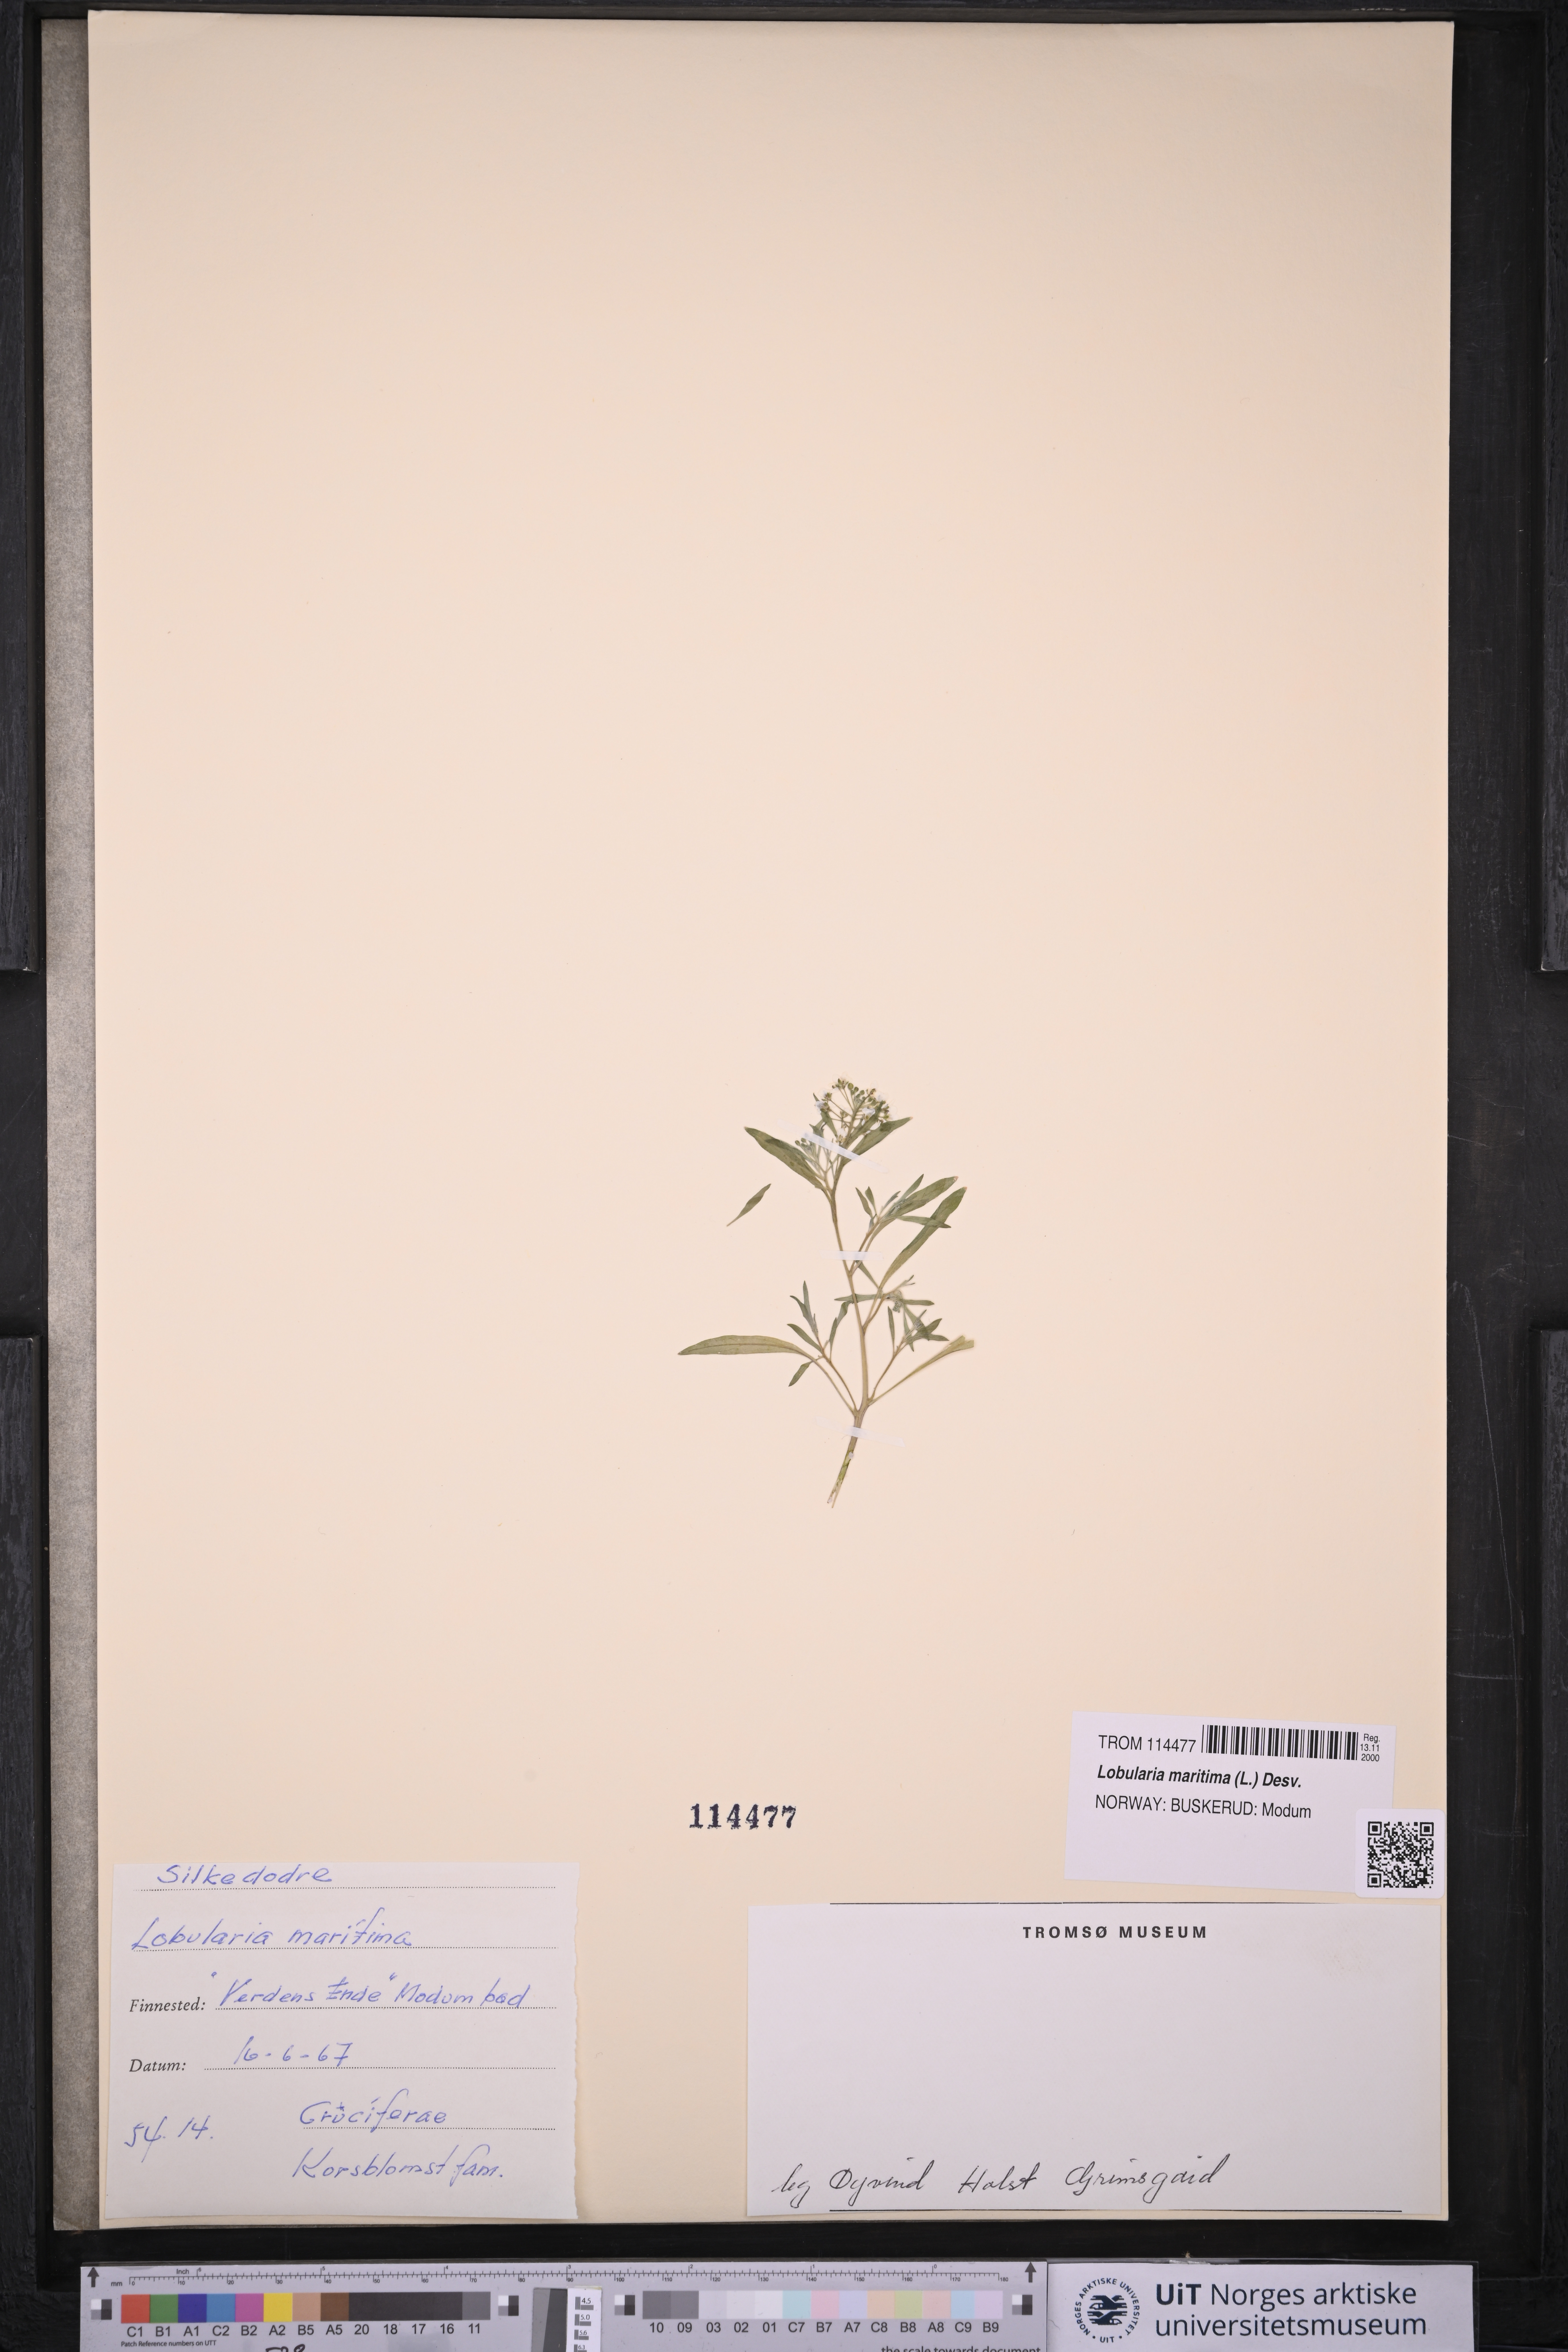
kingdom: Plantae
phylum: Tracheophyta
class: Magnoliopsida
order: Brassicales
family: Brassicaceae
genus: Lobularia
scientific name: Lobularia maritima
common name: Sweet alison
